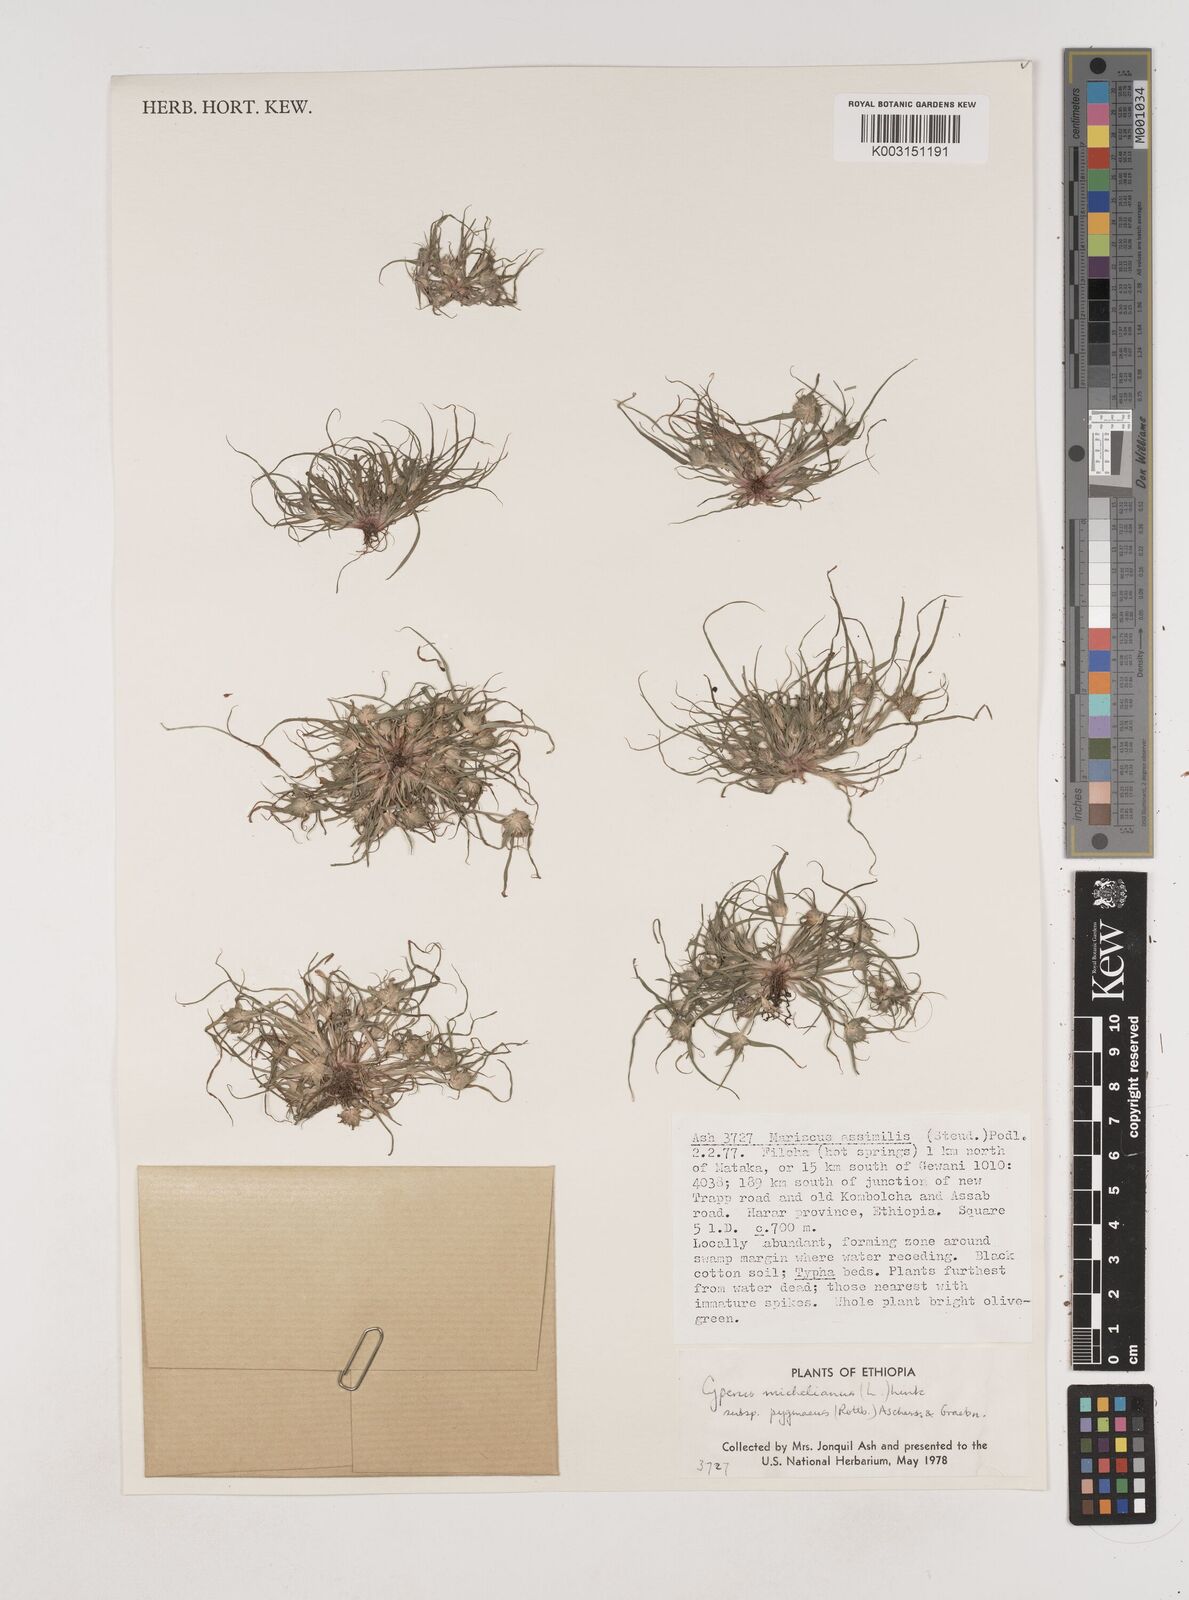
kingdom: Plantae
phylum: Tracheophyta
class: Liliopsida
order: Poales
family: Cyperaceae
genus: Cyperus
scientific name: Cyperus michelianus
